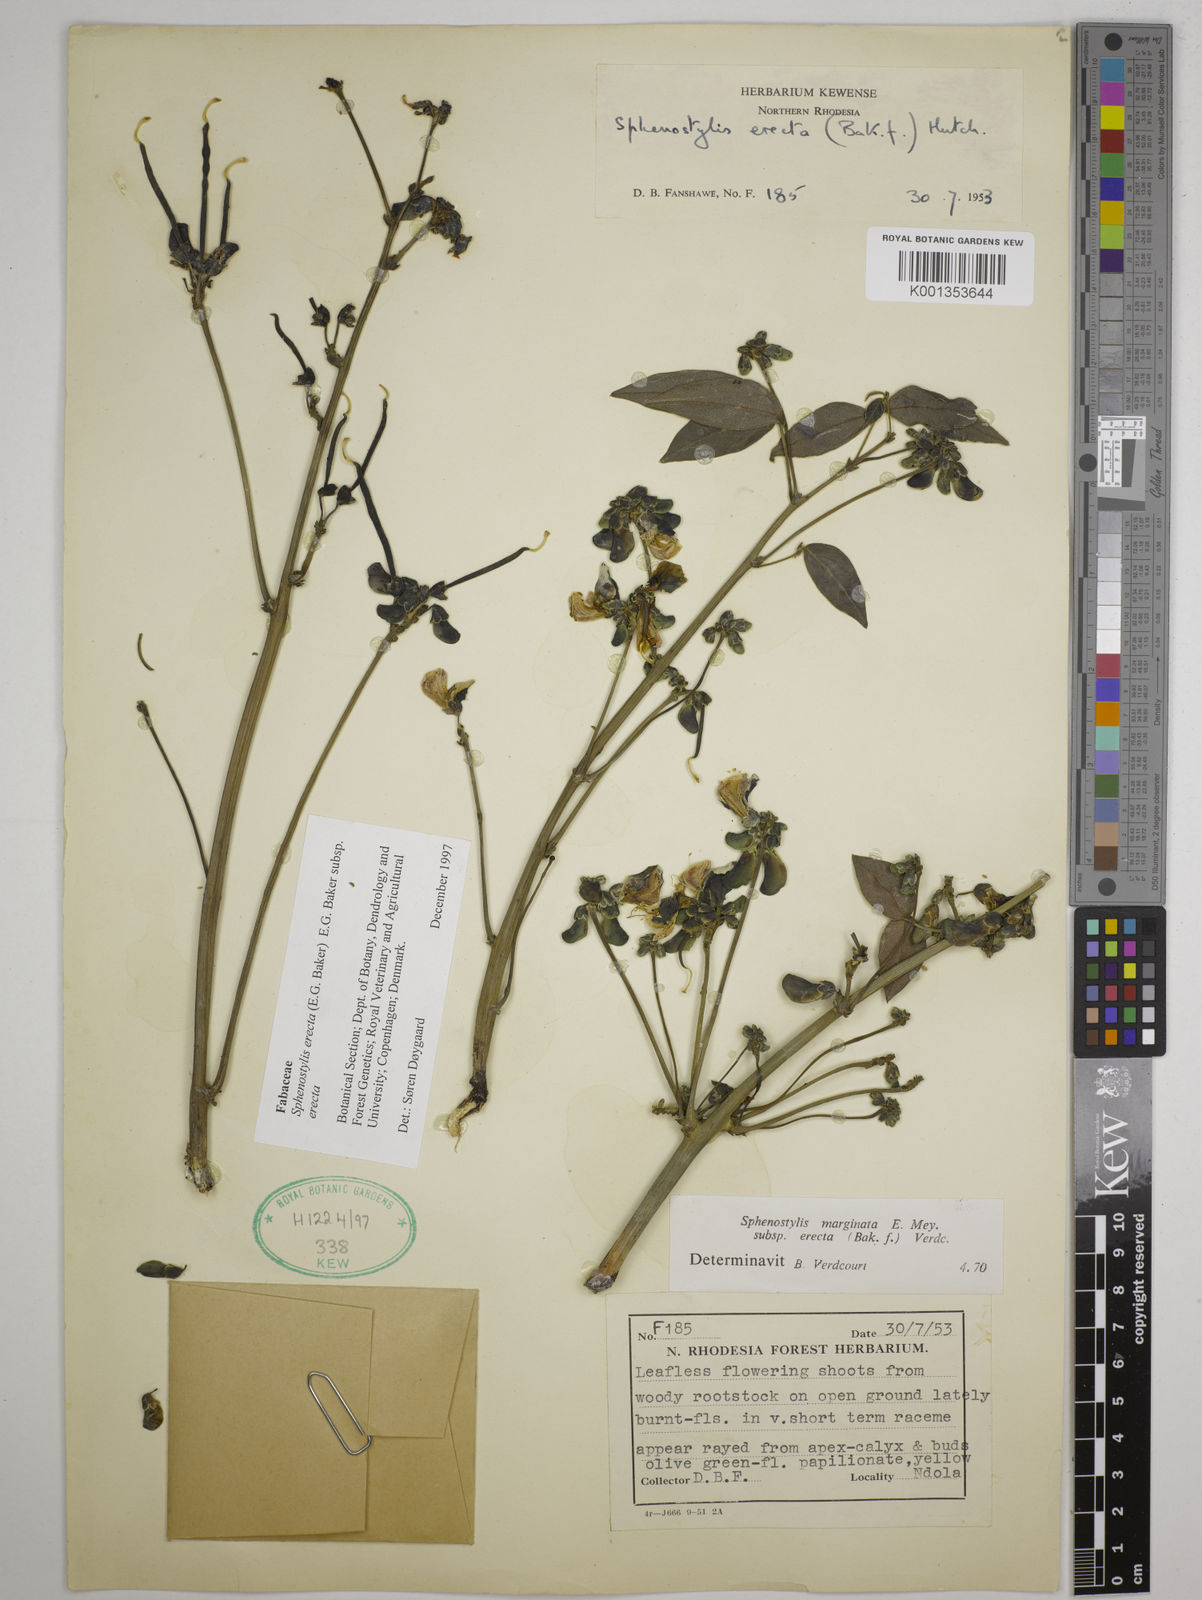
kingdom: Plantae
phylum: Tracheophyta
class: Magnoliopsida
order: Fabales
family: Fabaceae
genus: Sphenostylis
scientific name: Sphenostylis erecta
